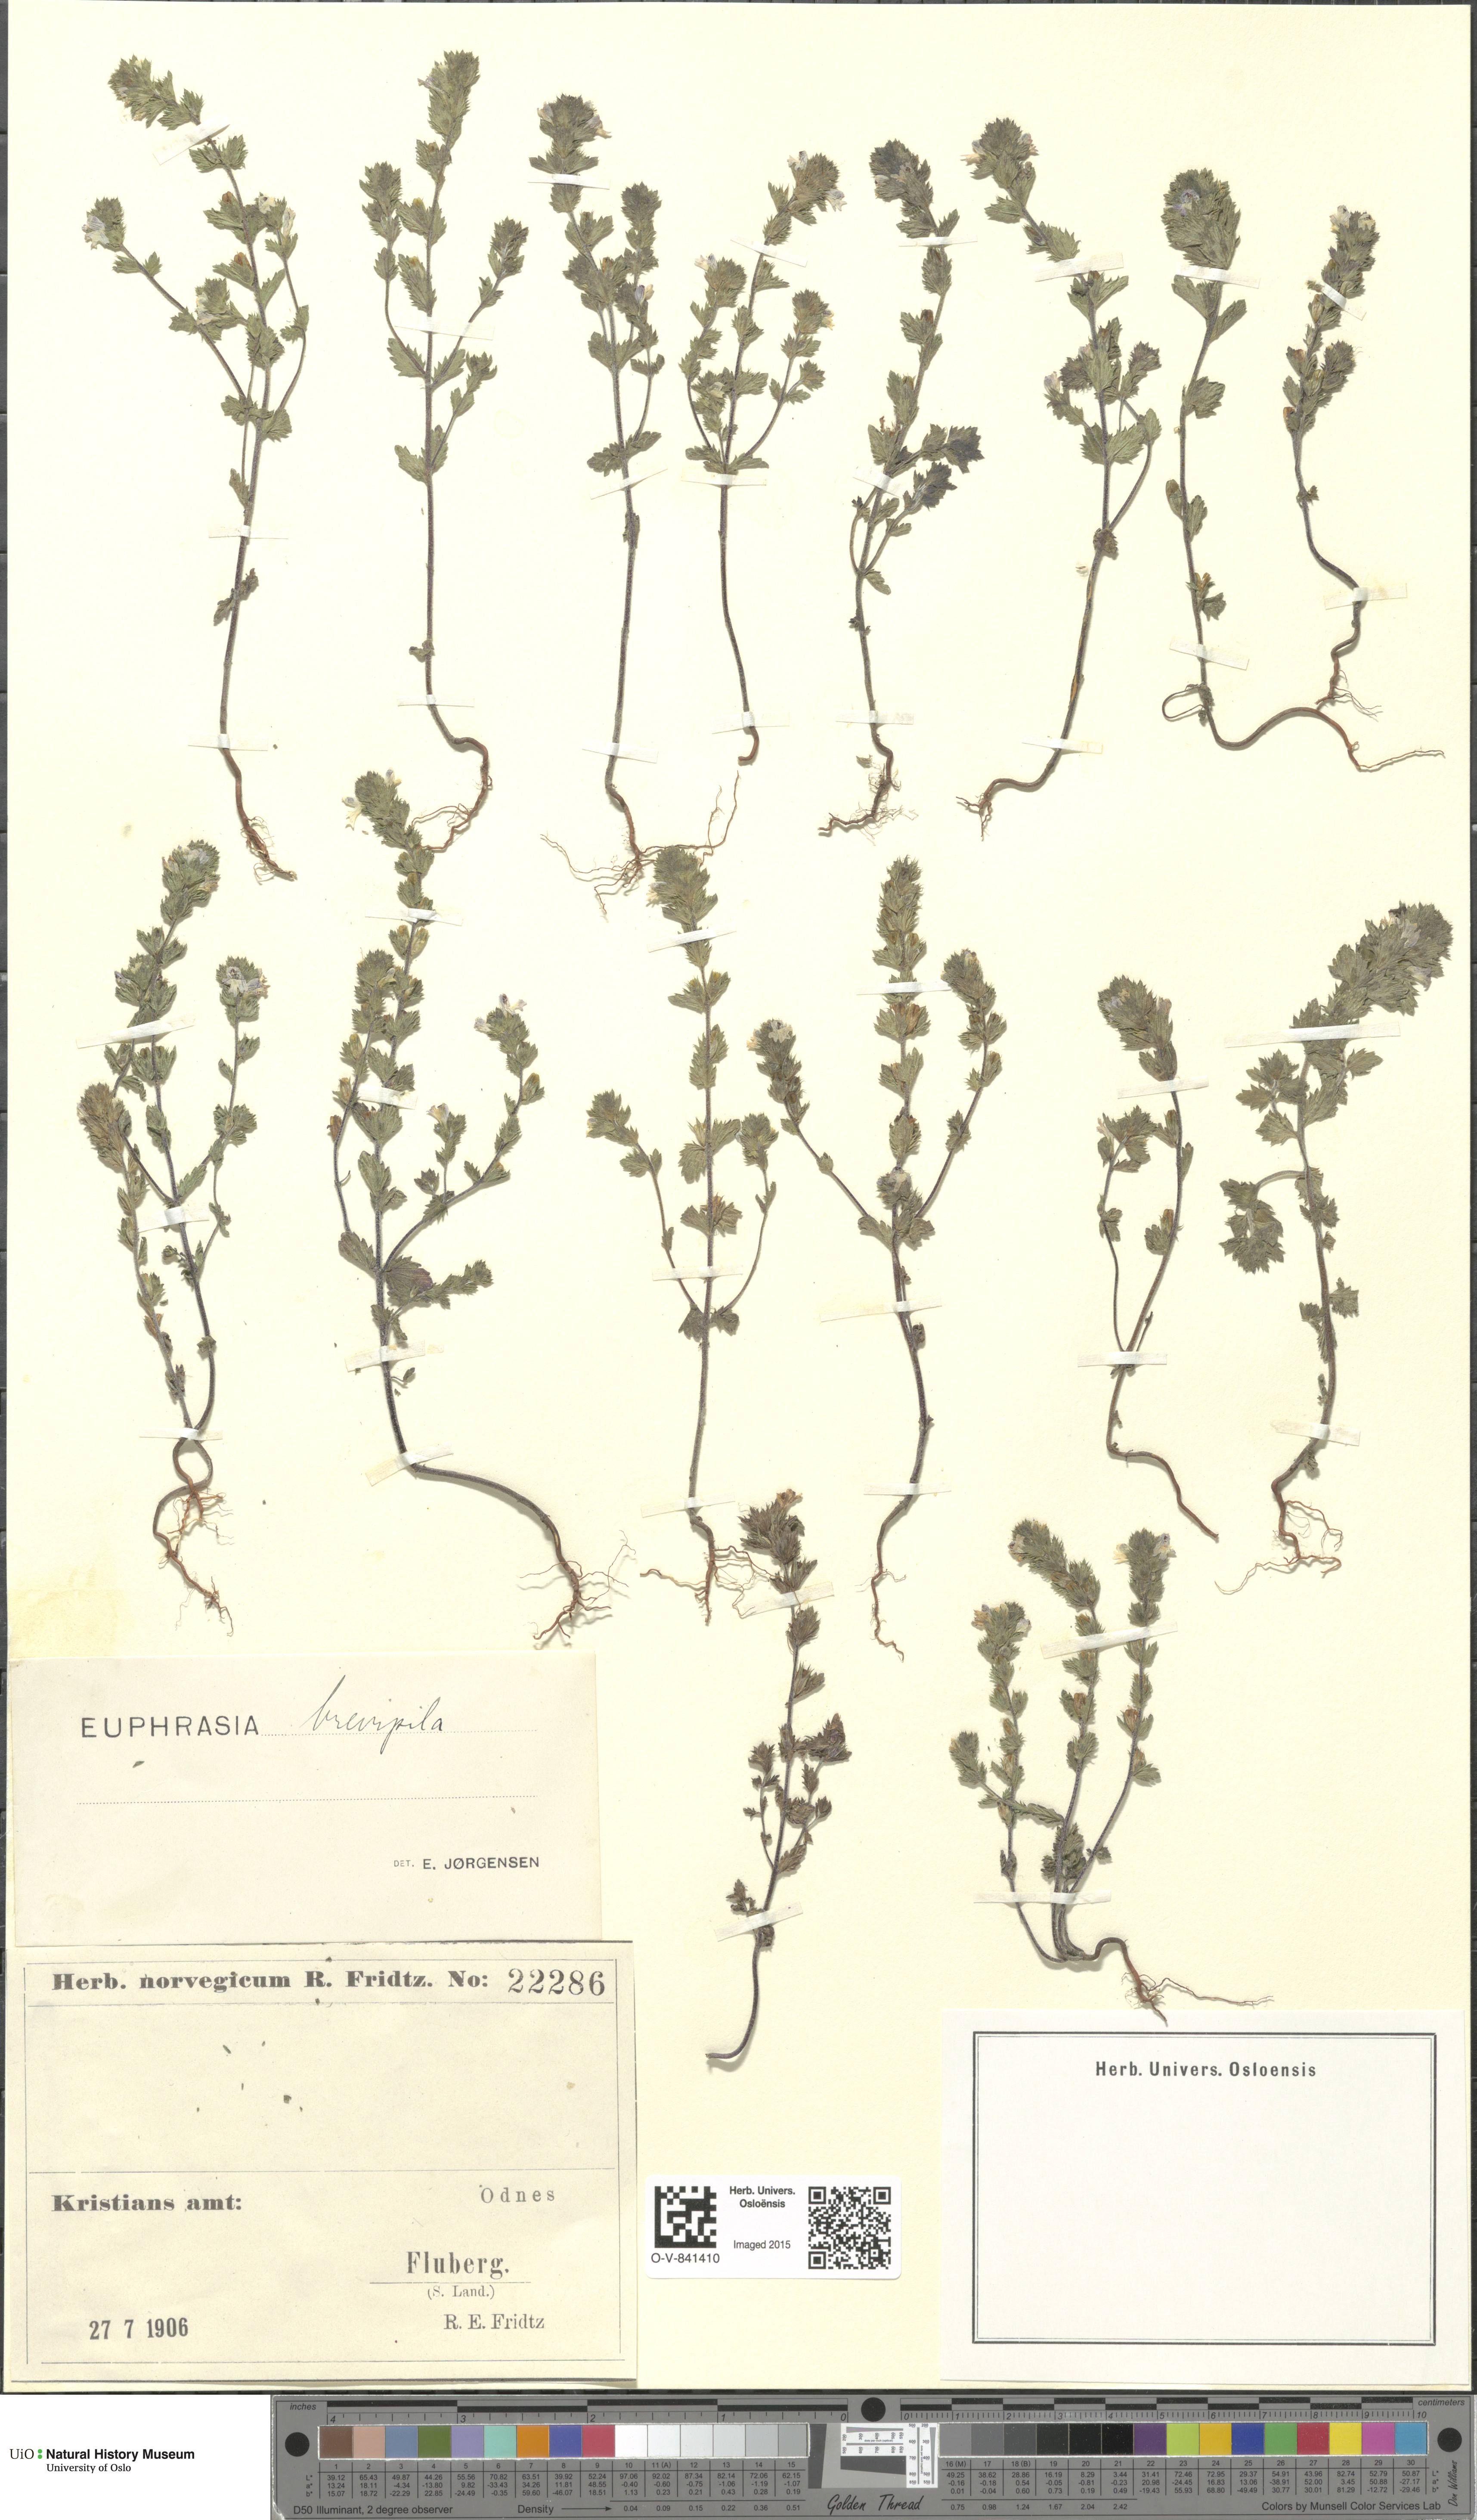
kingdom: Plantae
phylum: Tracheophyta
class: Magnoliopsida
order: Lamiales
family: Orobanchaceae
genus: Euphrasia
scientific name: Euphrasia vernalis
